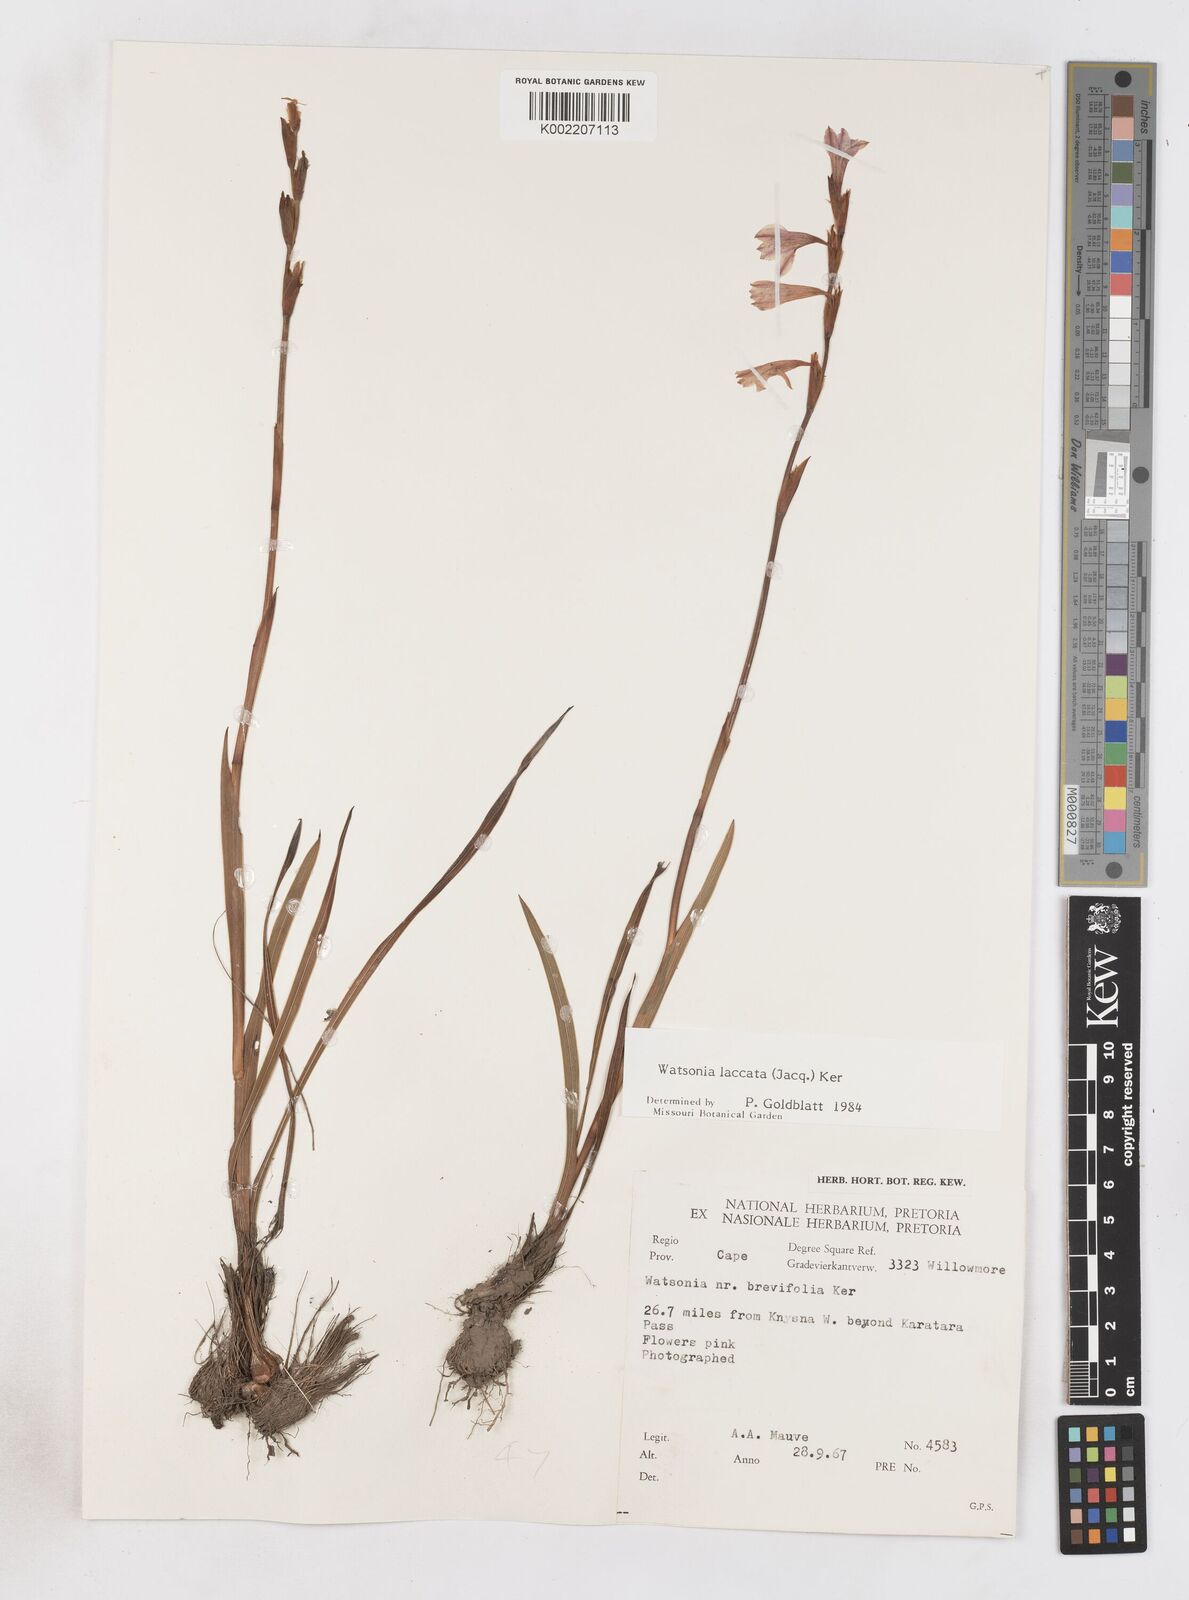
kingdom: Plantae
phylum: Tracheophyta
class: Liliopsida
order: Asparagales
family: Iridaceae
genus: Watsonia
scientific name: Watsonia laccata
